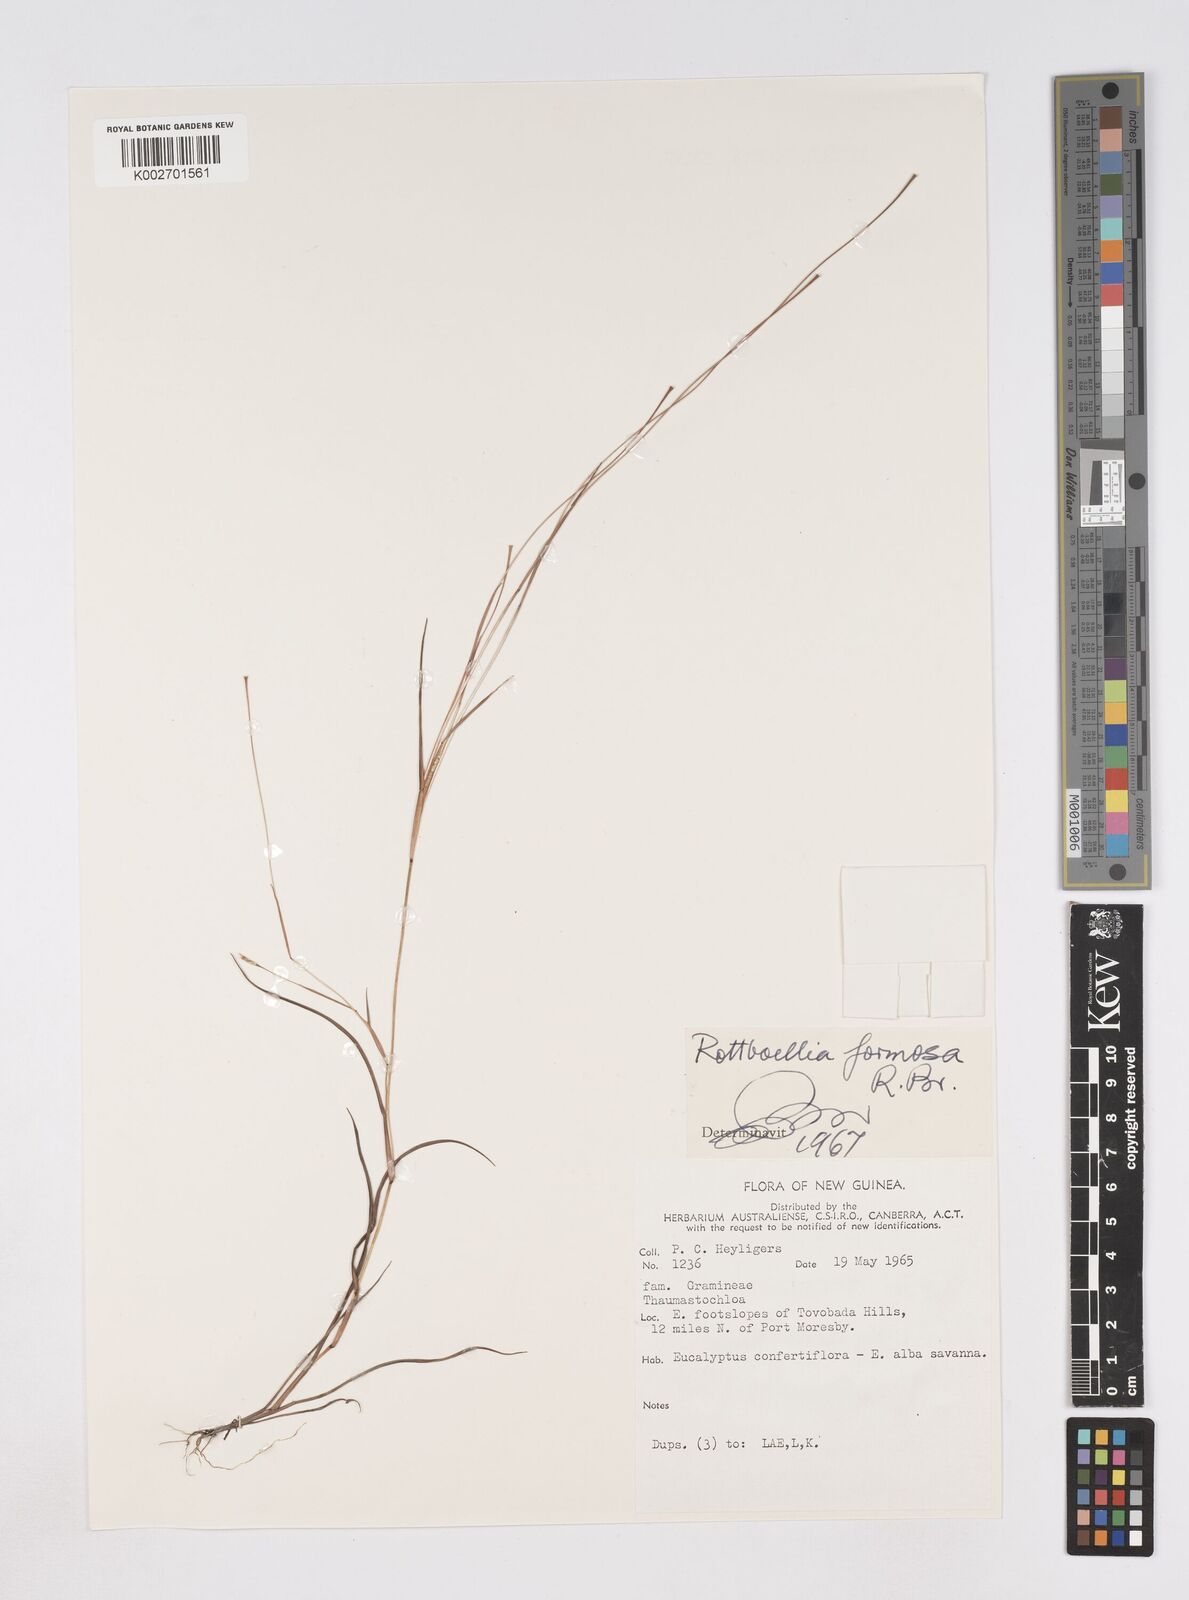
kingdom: Plantae
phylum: Tracheophyta
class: Liliopsida
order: Poales
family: Poaceae
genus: Heteropholis
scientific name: Heteropholis
